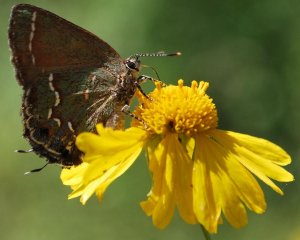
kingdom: Animalia
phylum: Arthropoda
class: Insecta
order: Lepidoptera
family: Lycaenidae
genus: Mitoura
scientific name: Mitoura gryneus
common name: Juniper Hairstreak
